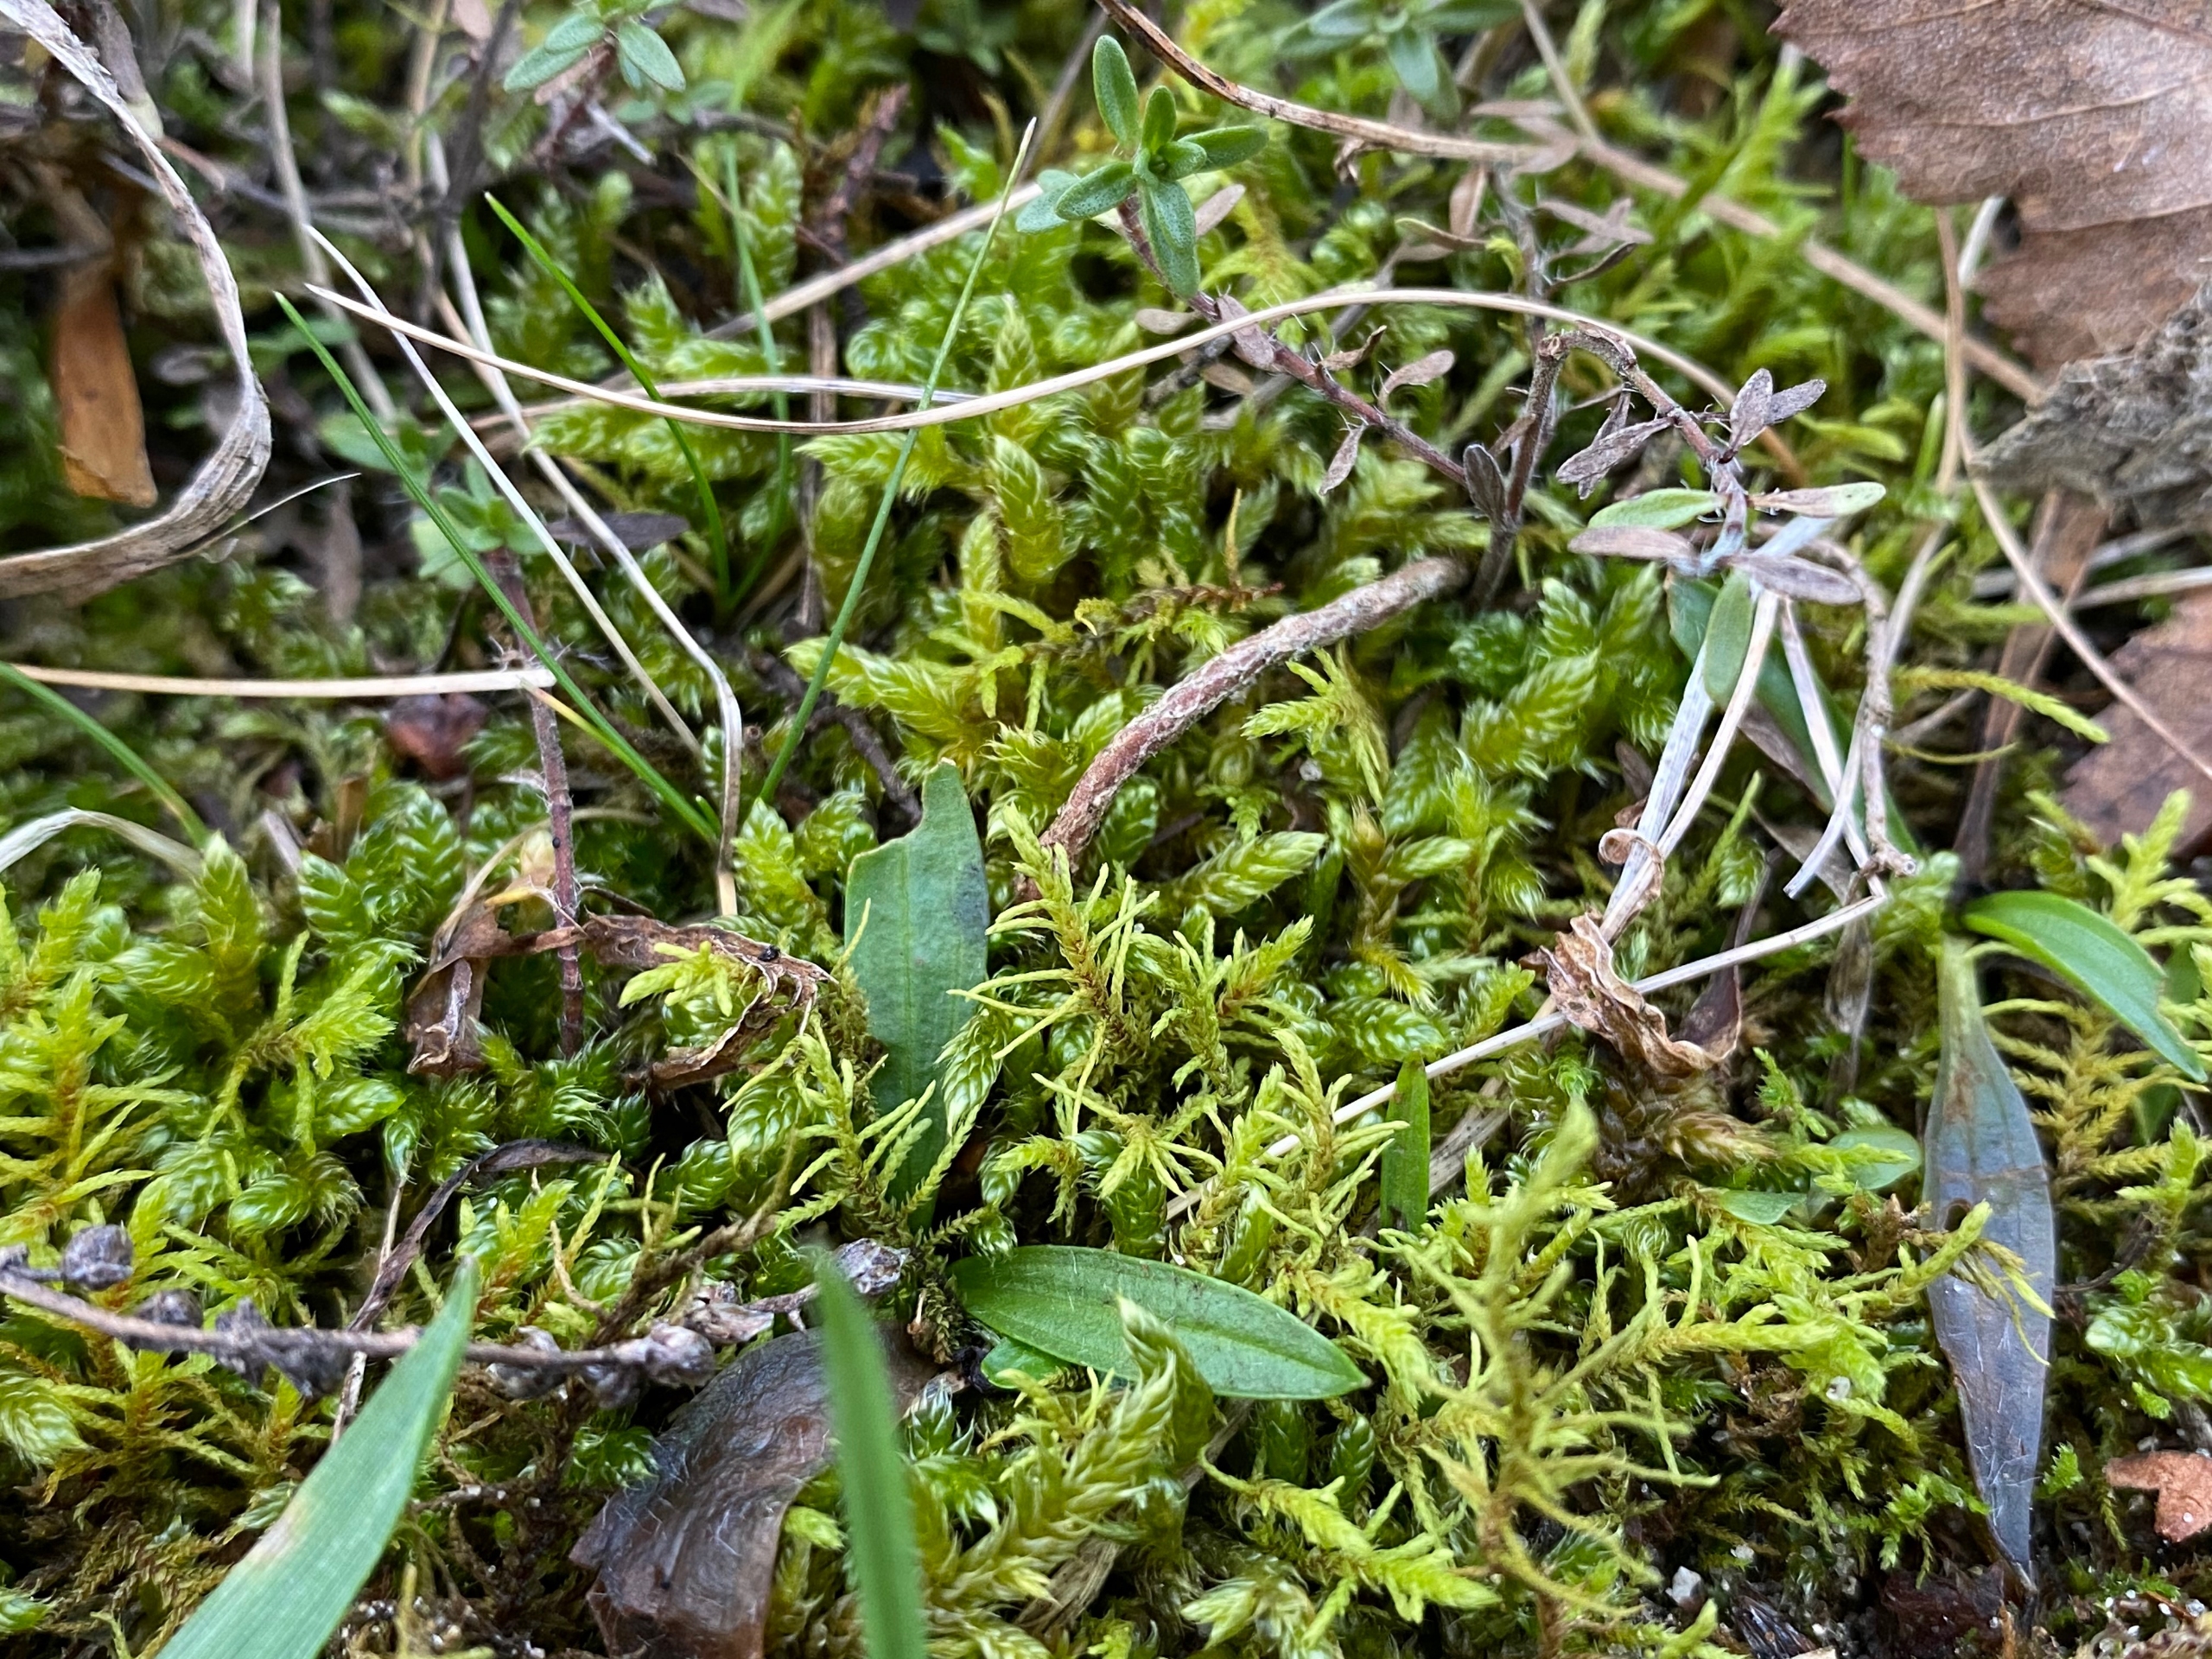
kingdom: Plantae
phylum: Bryophyta
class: Bryopsida
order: Hypnales
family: Thuidiaceae
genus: Abietinella
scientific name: Abietinella abietina
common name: Bakke-granmos
